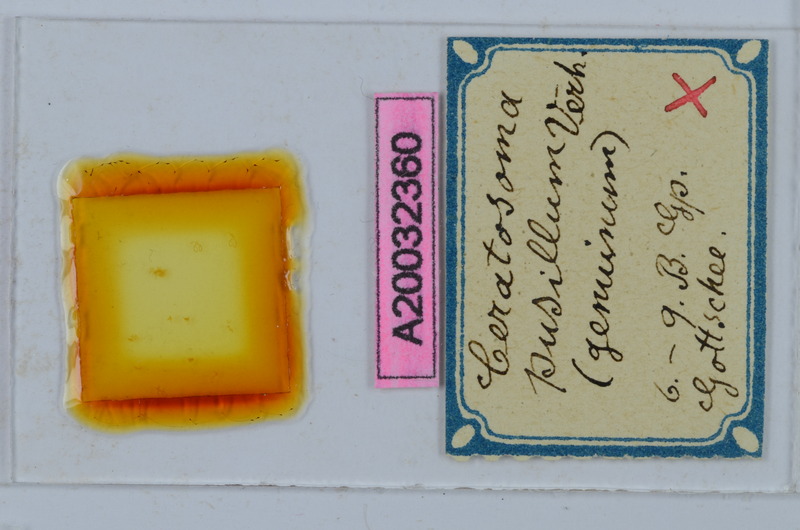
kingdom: Animalia
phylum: Arthropoda
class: Diplopoda
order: Chordeumatida
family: Craspedosomatidae
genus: Ochogona
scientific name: Ochogona pusilla
